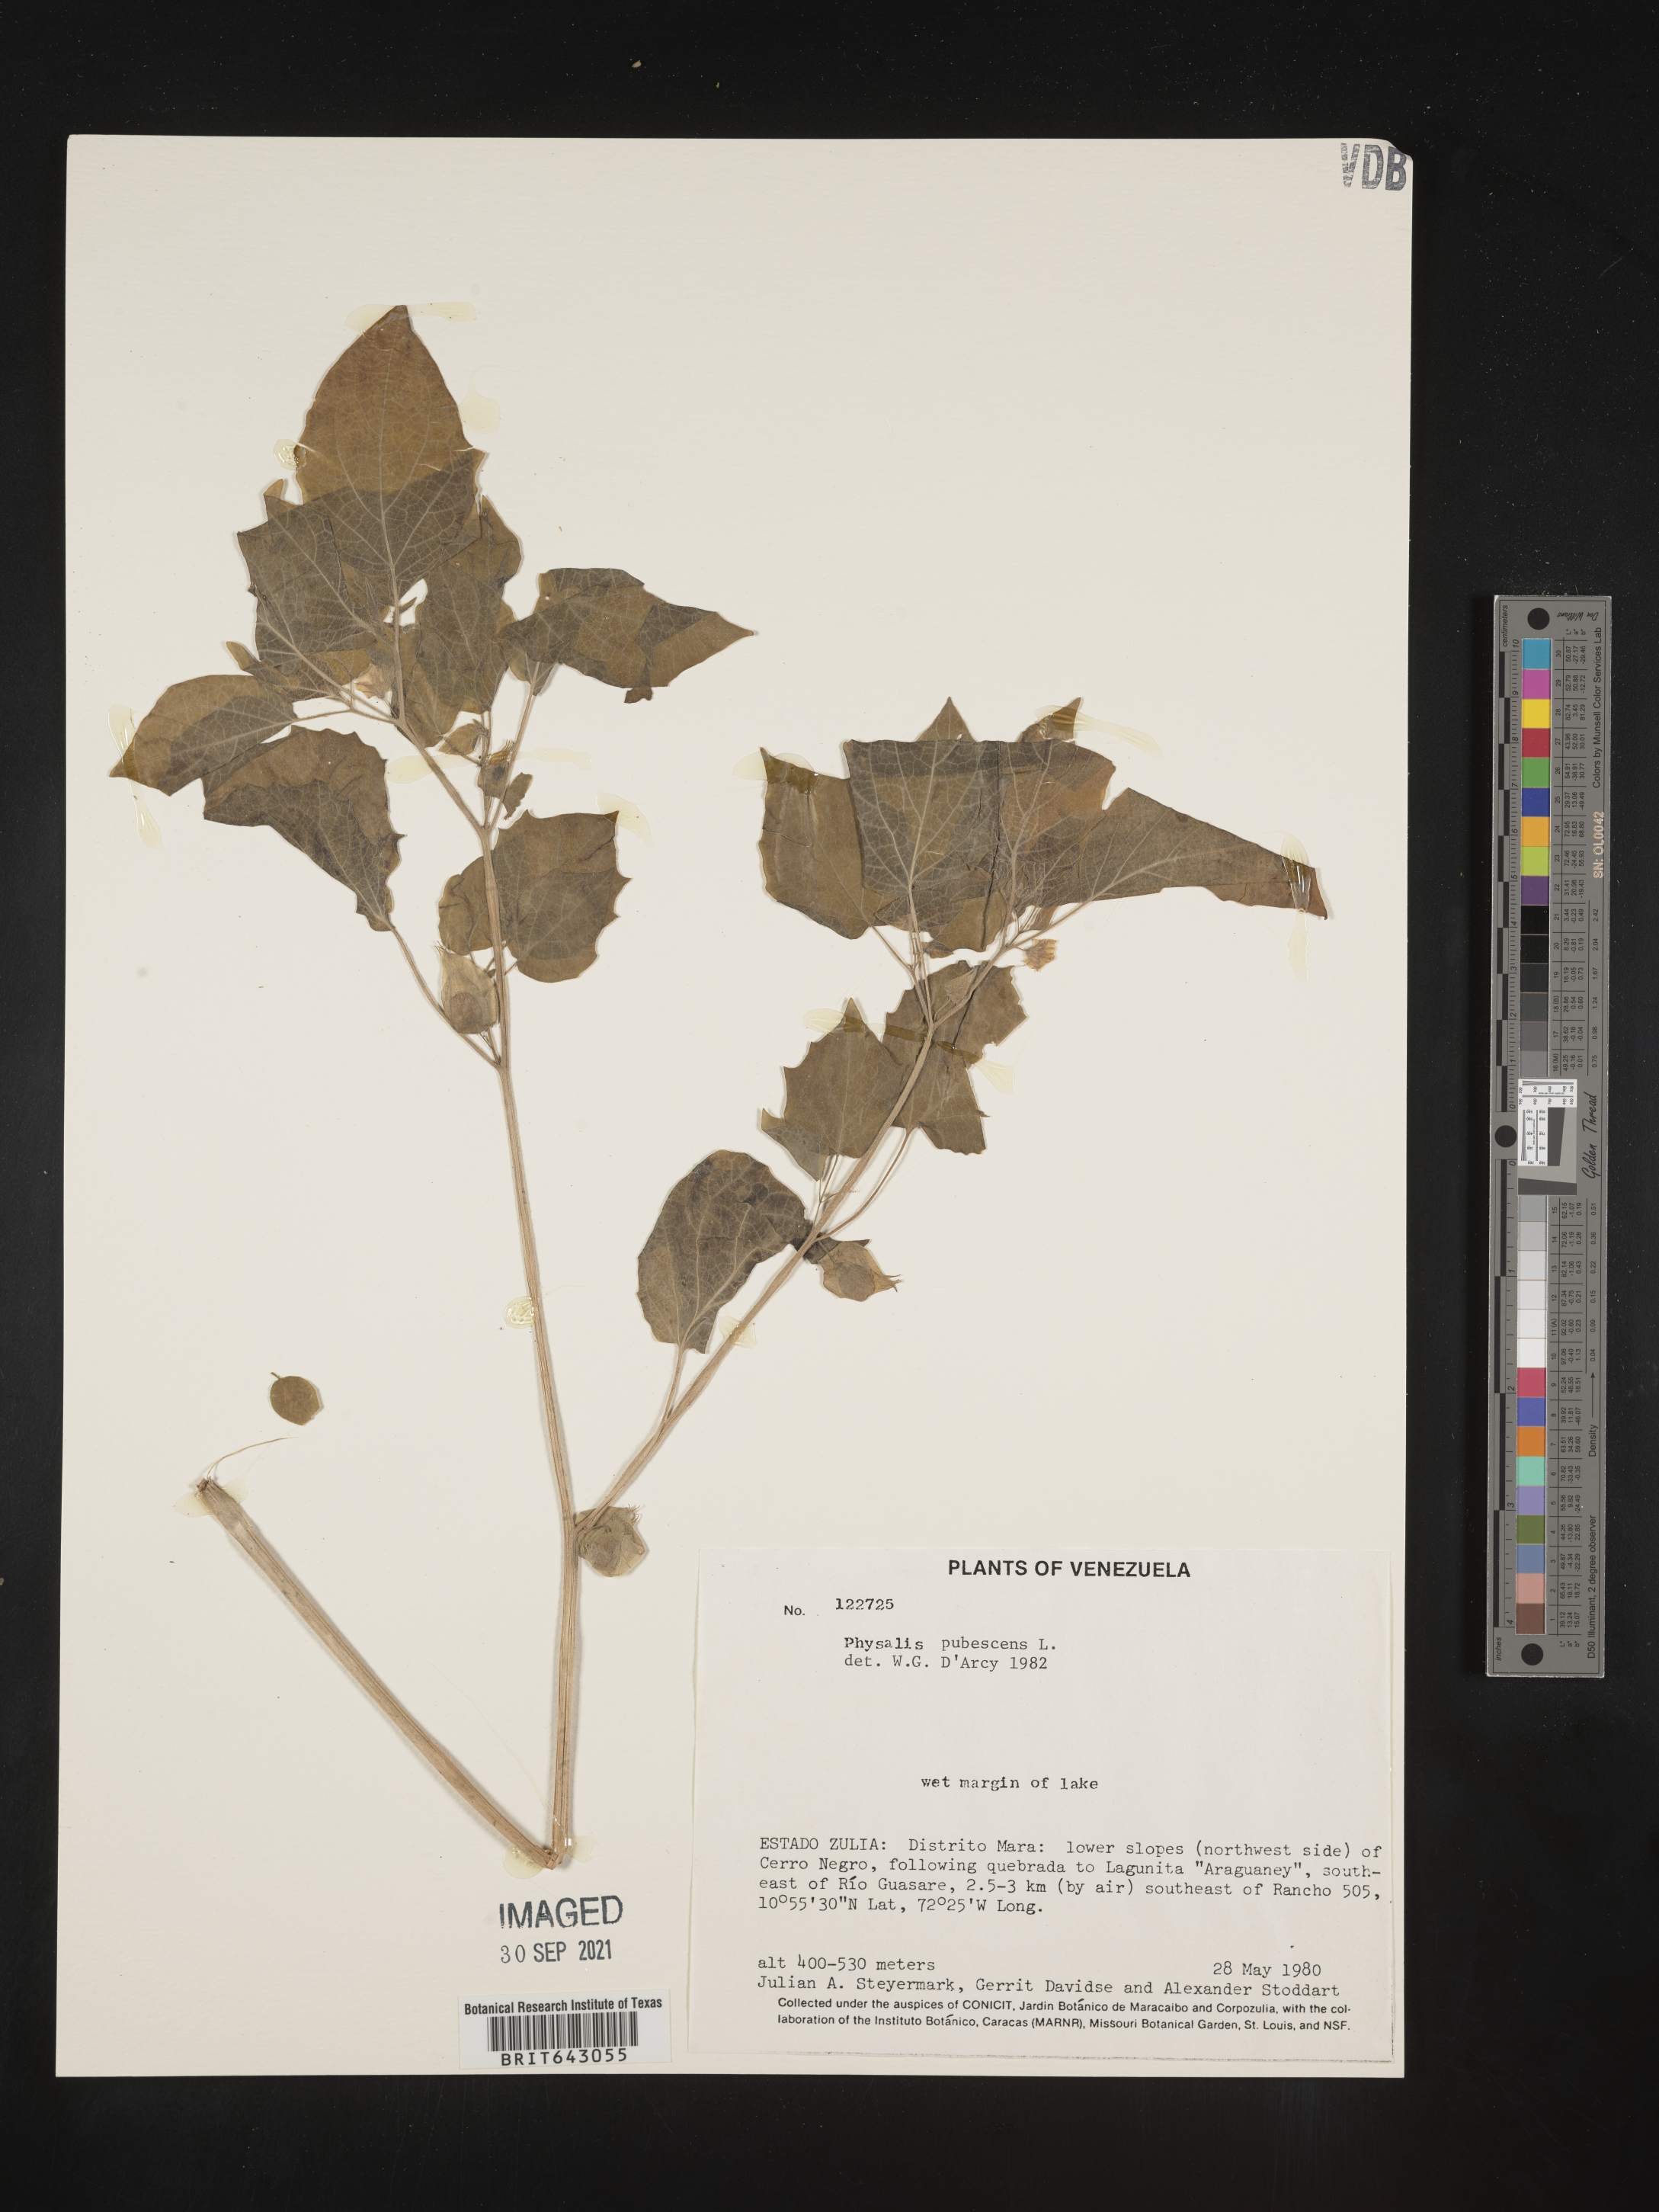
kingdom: Plantae
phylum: Tracheophyta
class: Magnoliopsida
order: Solanales
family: Solanaceae
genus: Physalis
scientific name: Physalis
